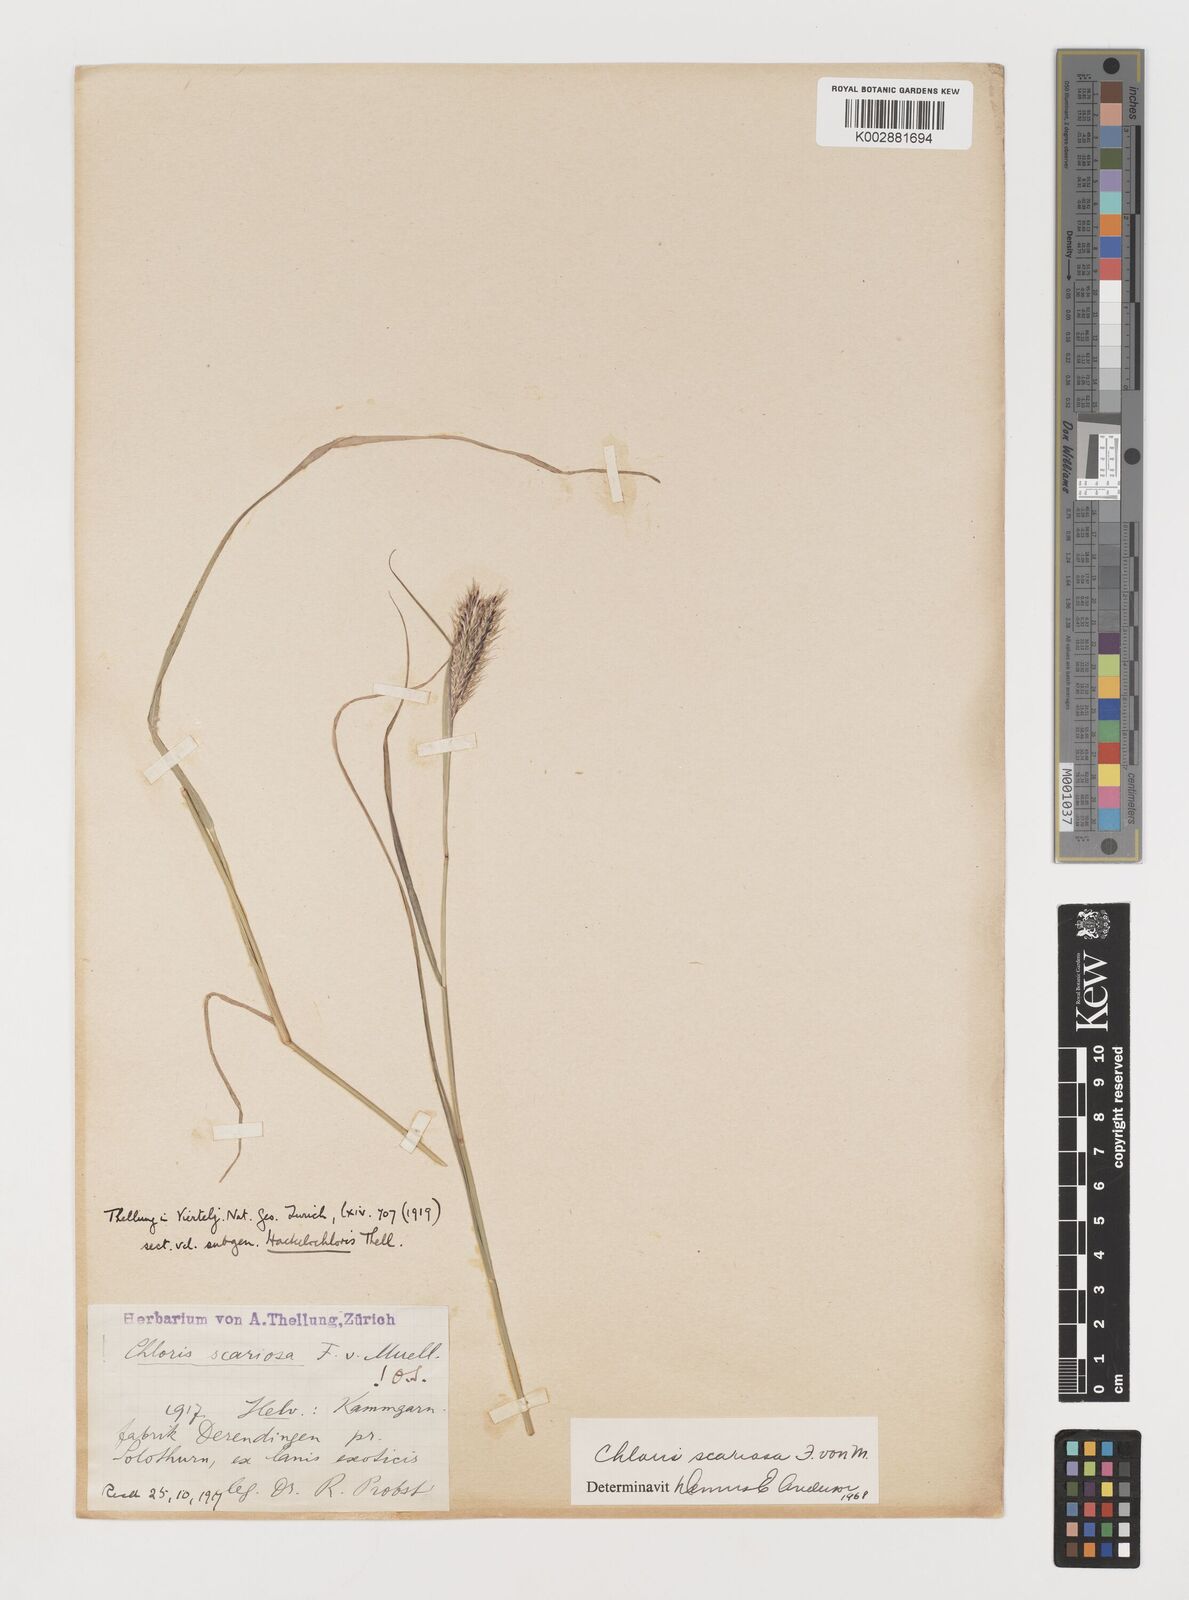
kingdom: Plantae
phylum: Tracheophyta
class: Liliopsida
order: Poales
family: Poaceae
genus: Oxychloris
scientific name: Oxychloris scariosa
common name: Winged windmill grass
